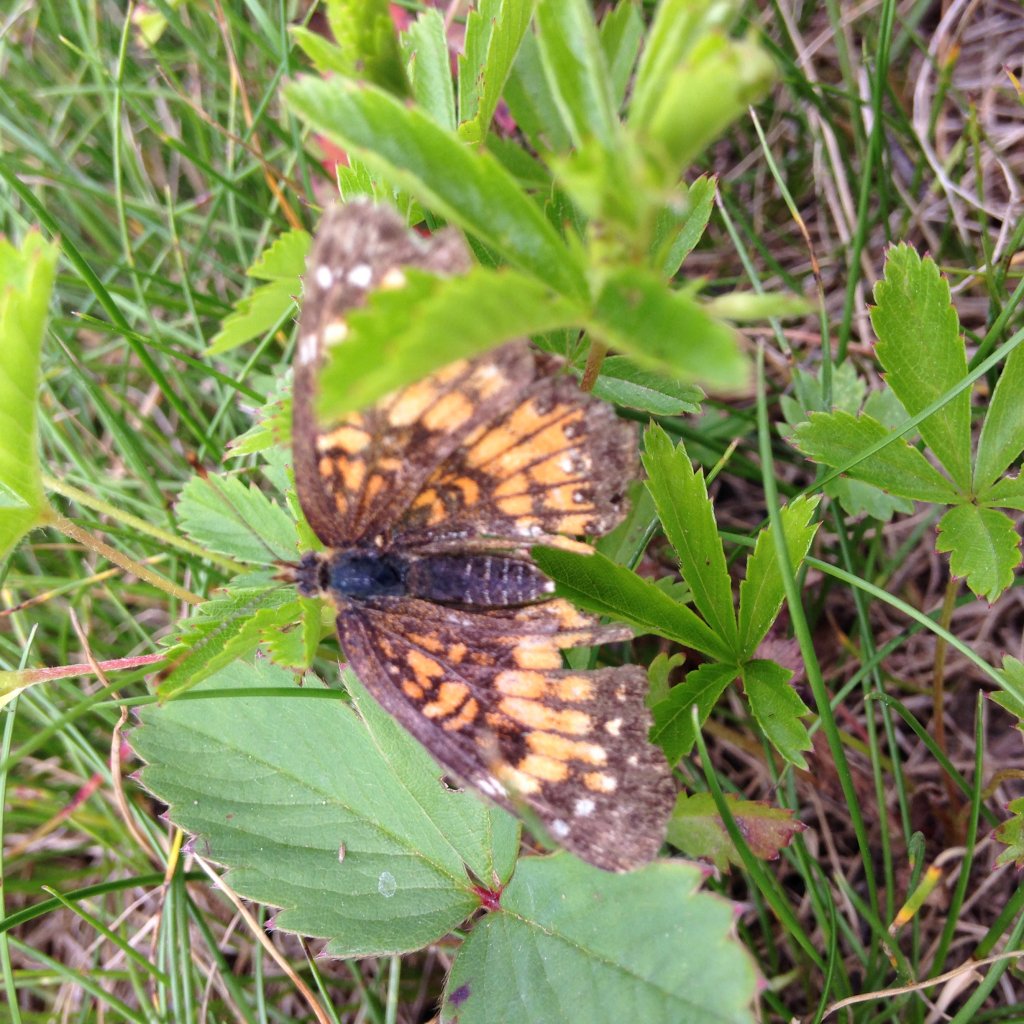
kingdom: Animalia
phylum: Arthropoda
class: Insecta
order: Lepidoptera
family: Nymphalidae
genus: Phyciodes
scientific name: Phyciodes tharos
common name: Northern Crescent
